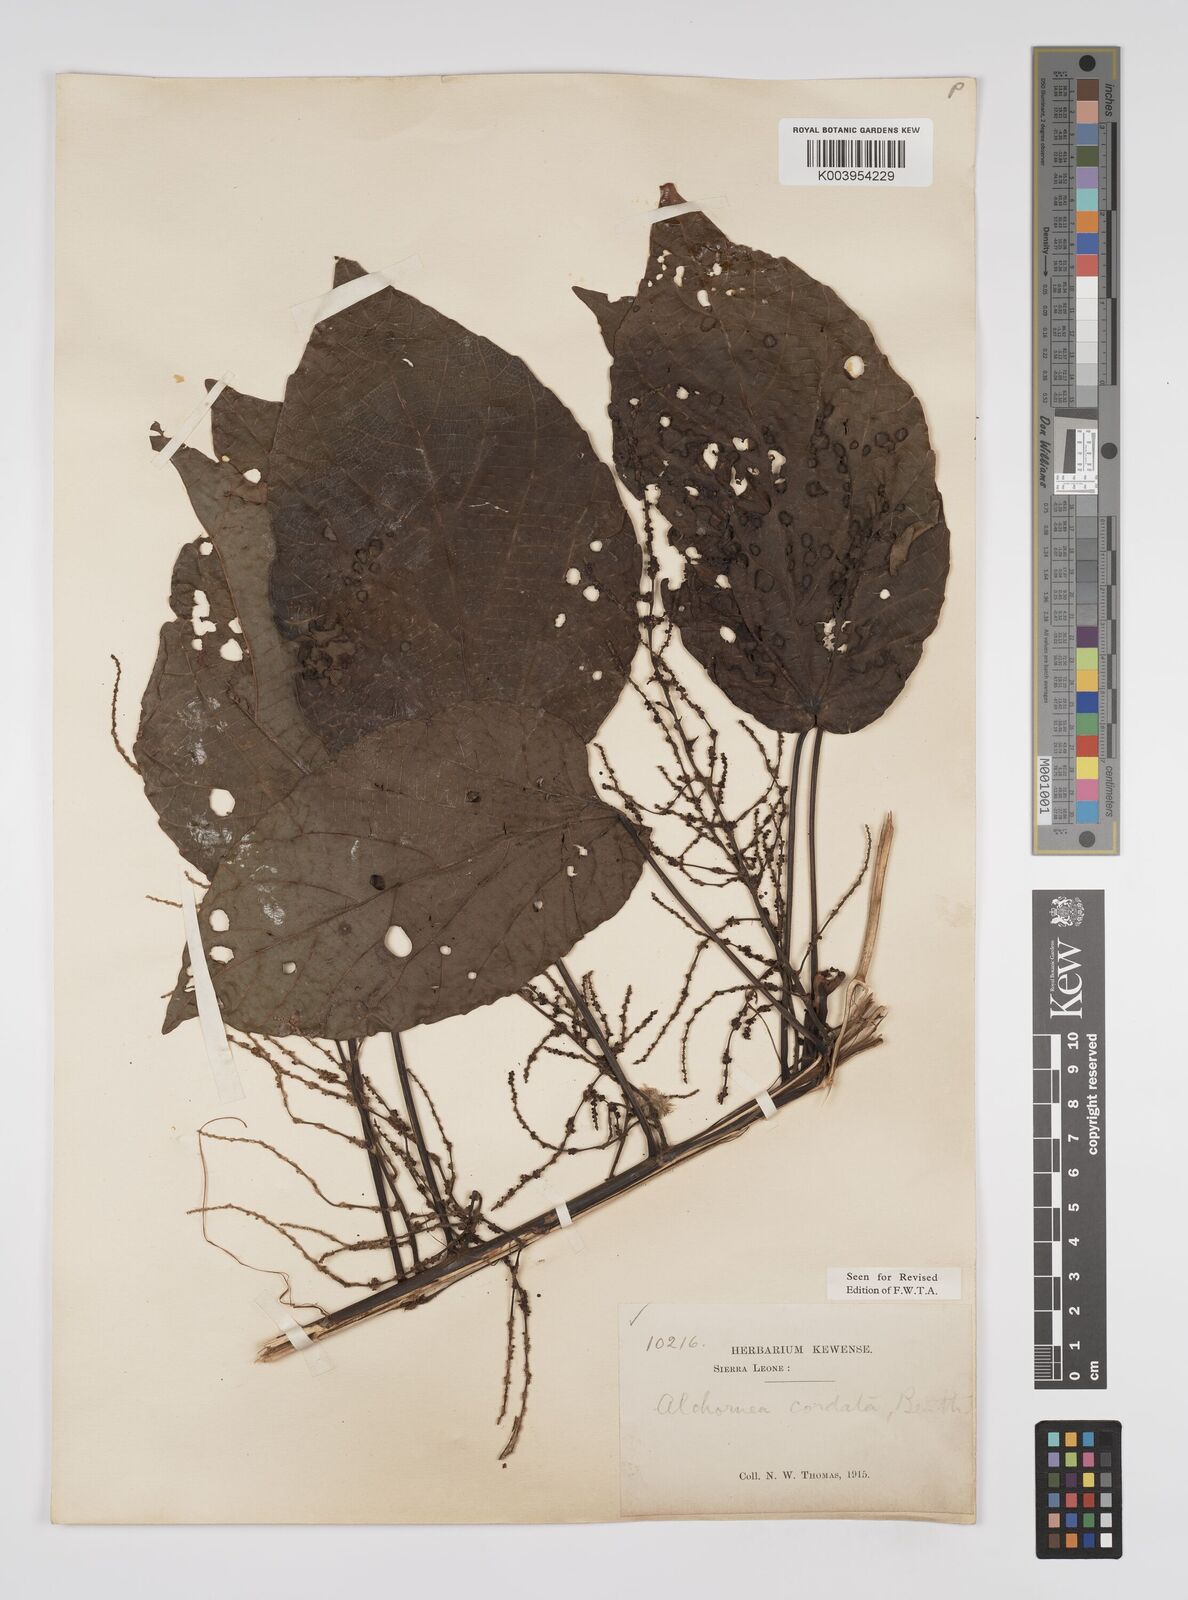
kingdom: Plantae
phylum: Tracheophyta
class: Magnoliopsida
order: Malpighiales
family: Euphorbiaceae
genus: Alchornea
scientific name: Alchornea cordifolia
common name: Christmasbush
